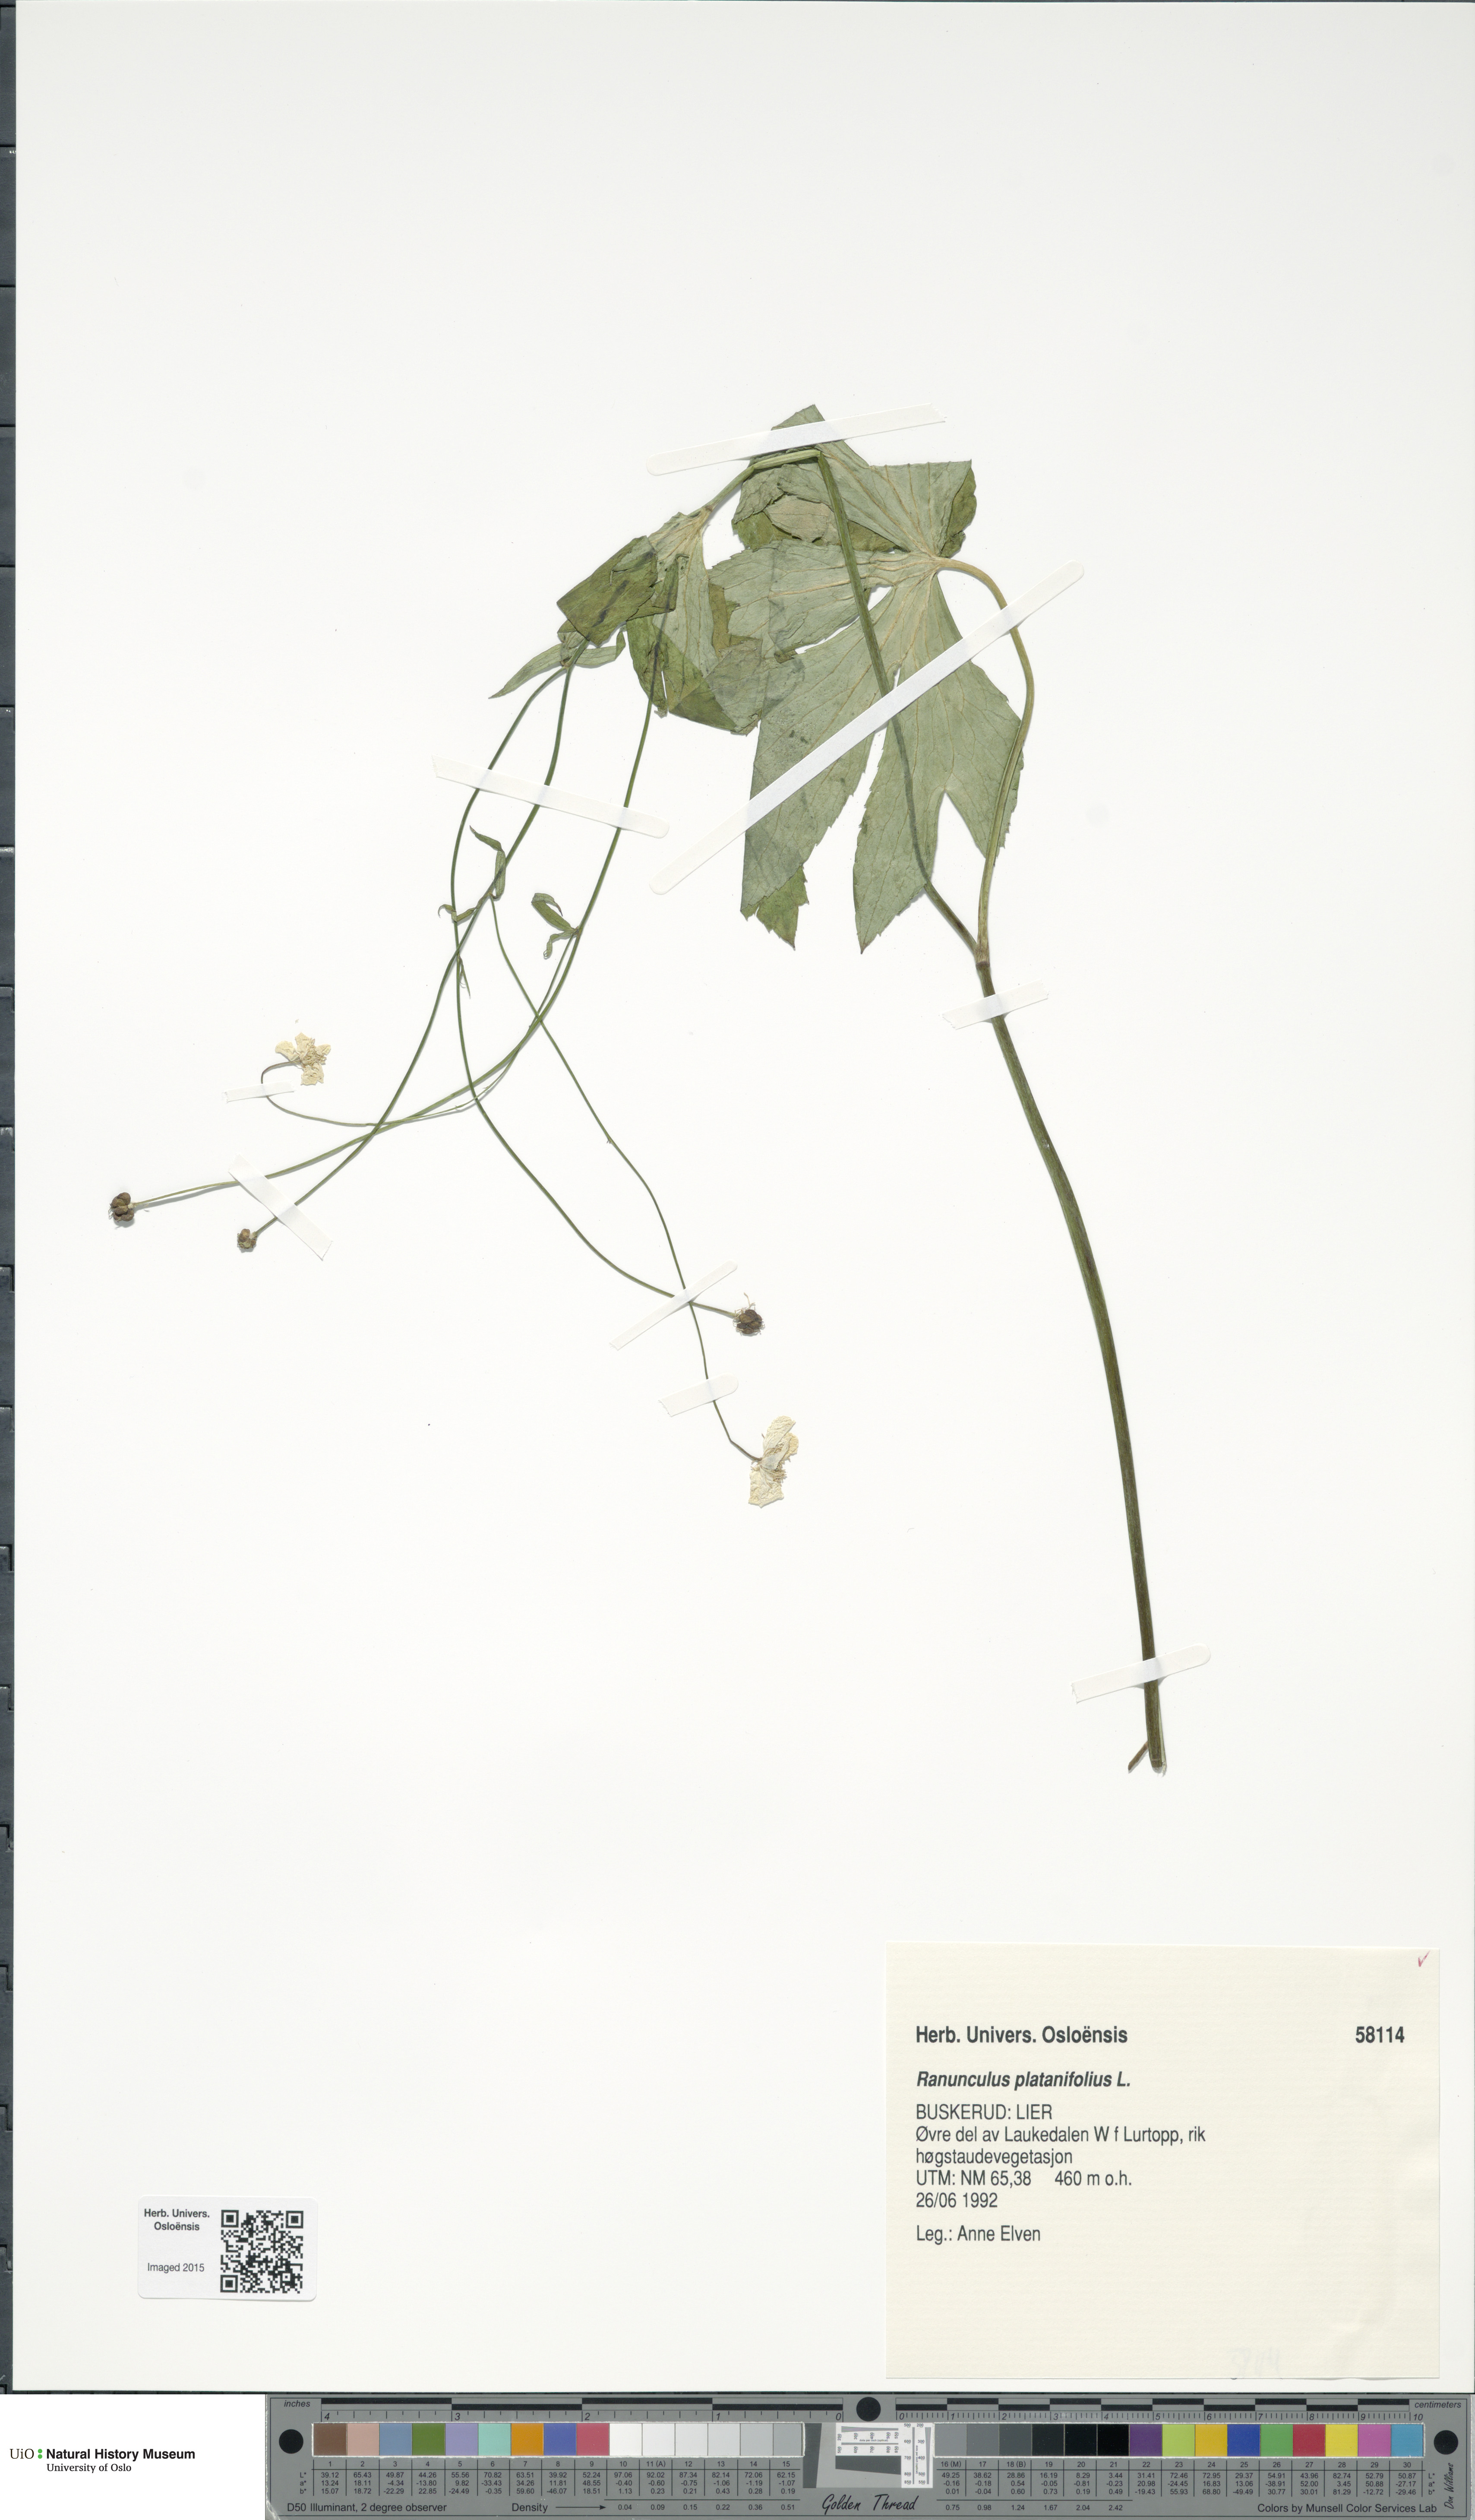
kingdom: Plantae
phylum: Tracheophyta
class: Magnoliopsida
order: Ranunculales
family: Ranunculaceae
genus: Ranunculus
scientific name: Ranunculus platanifolius
